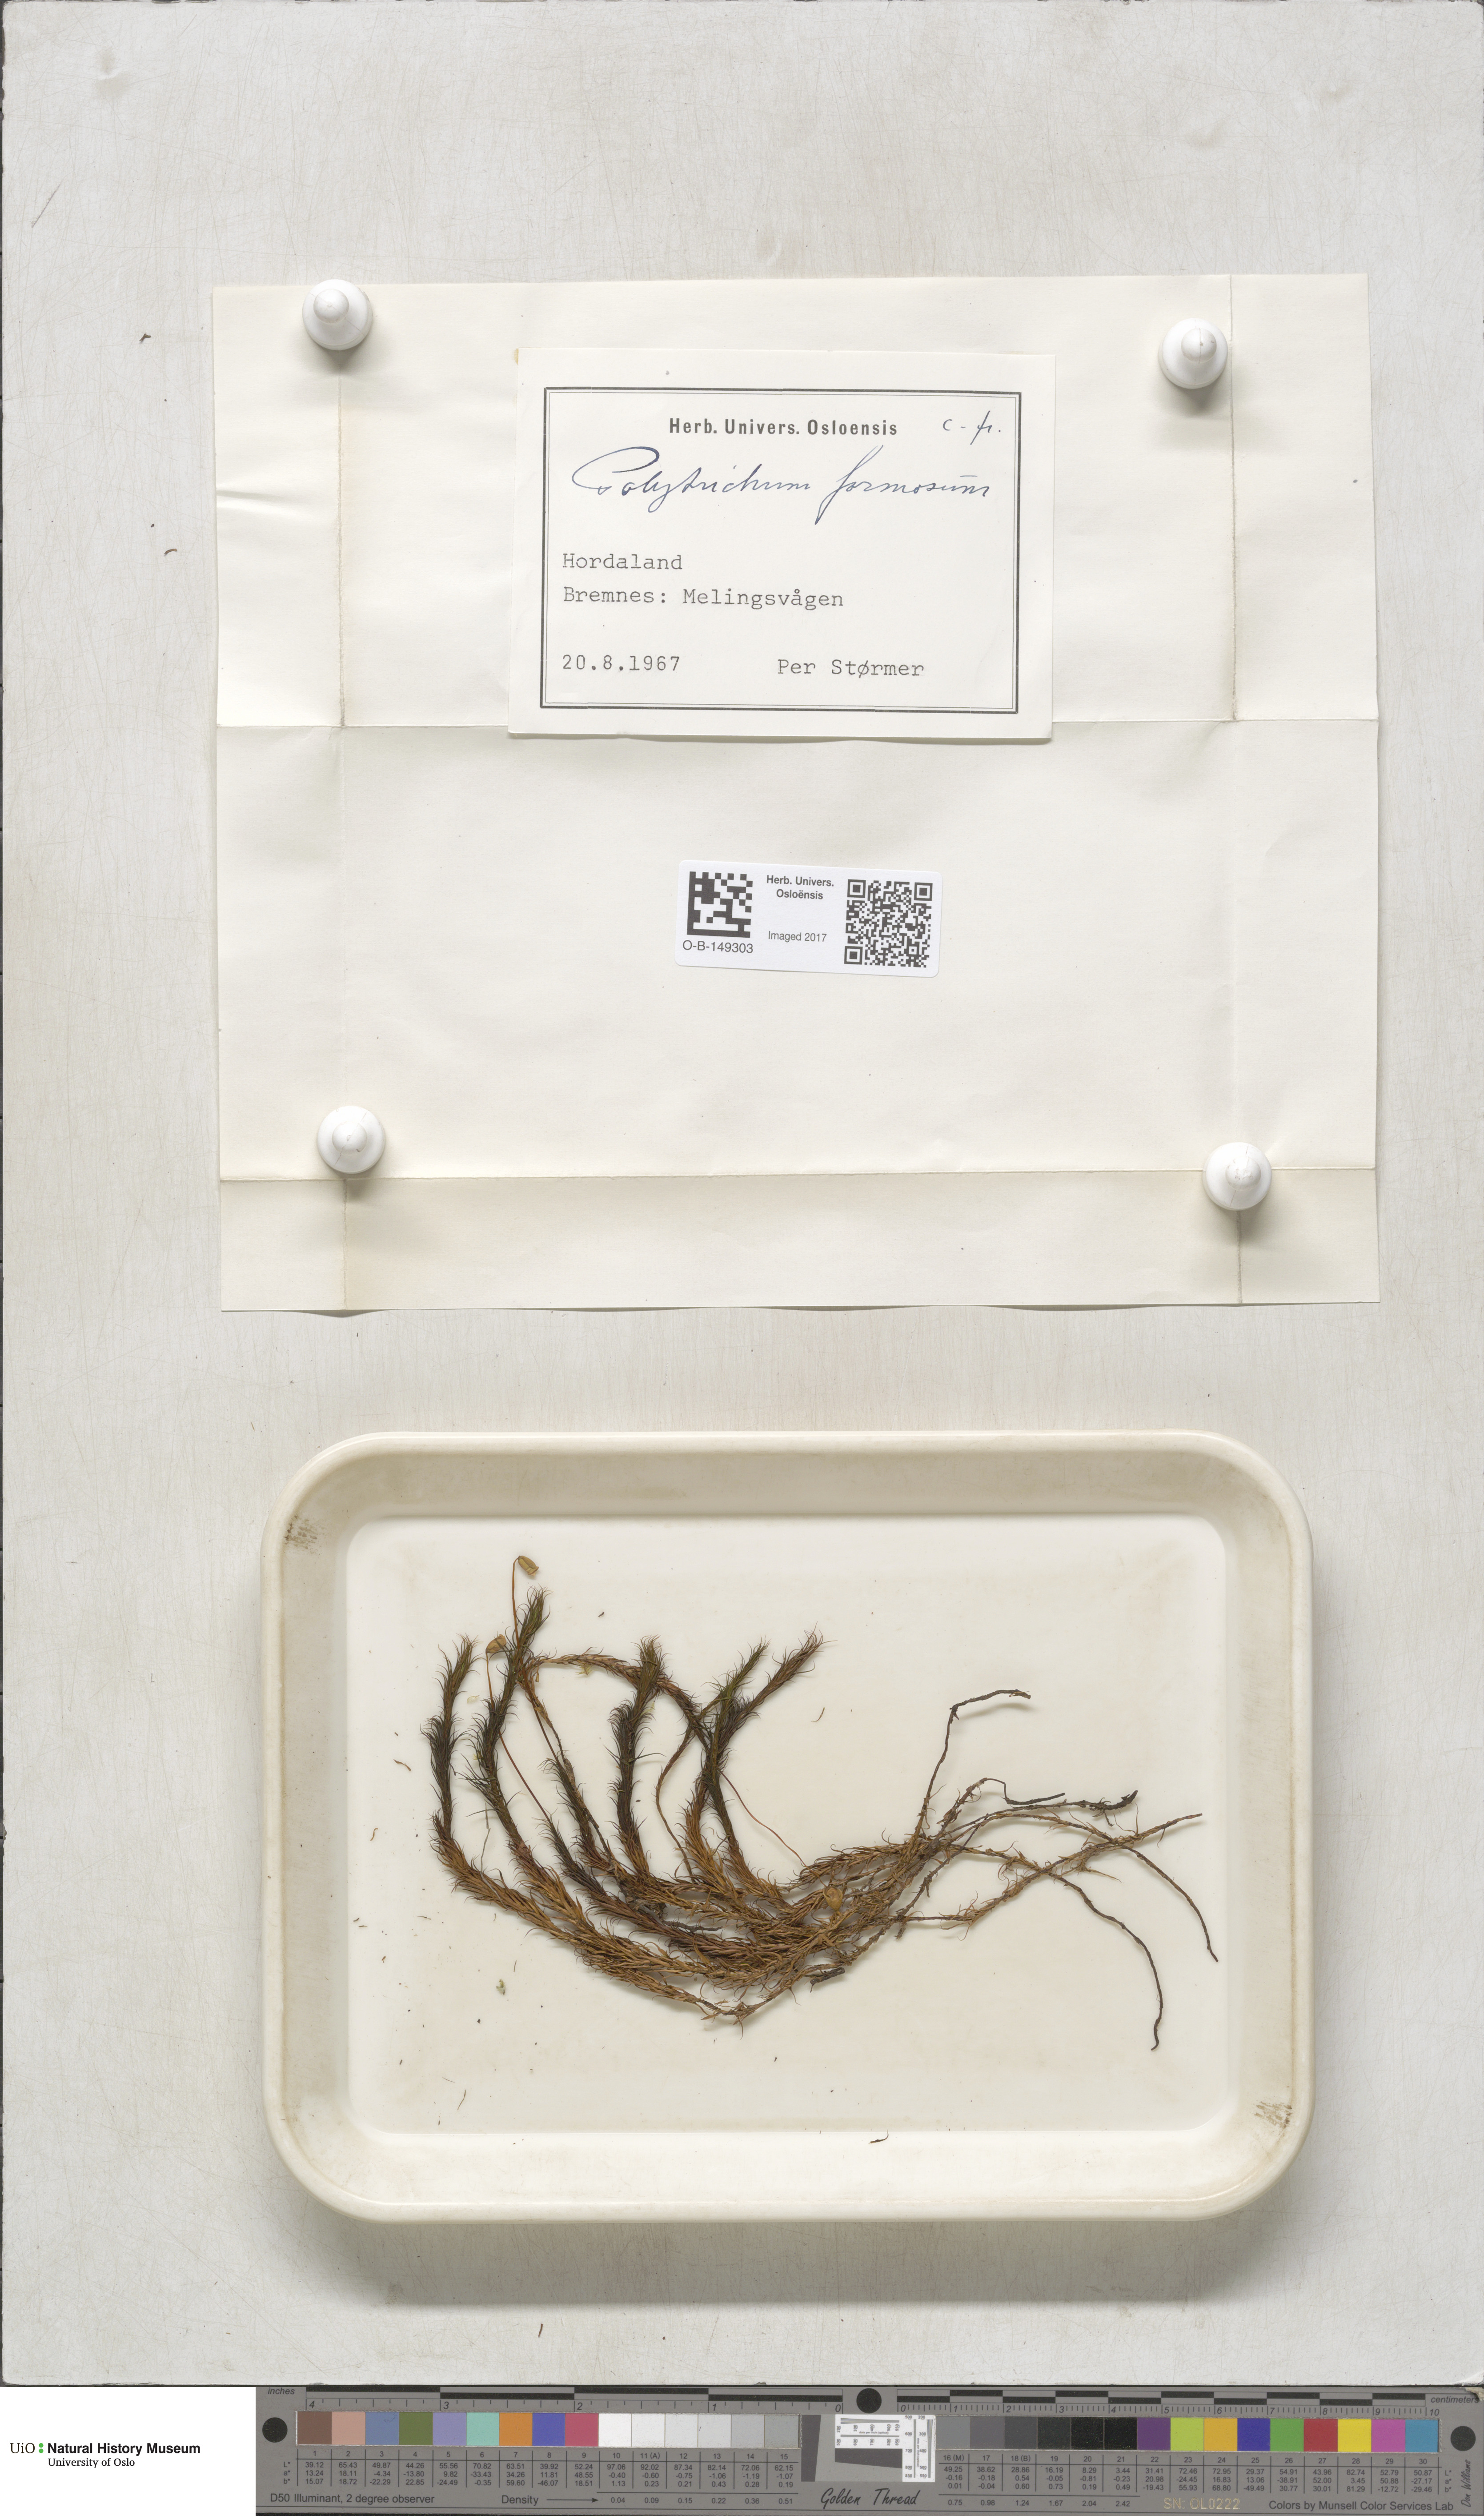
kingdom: Plantae
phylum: Bryophyta
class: Polytrichopsida
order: Polytrichales
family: Polytrichaceae
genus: Polytrichum
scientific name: Polytrichum formosum
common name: Bank haircap moss
